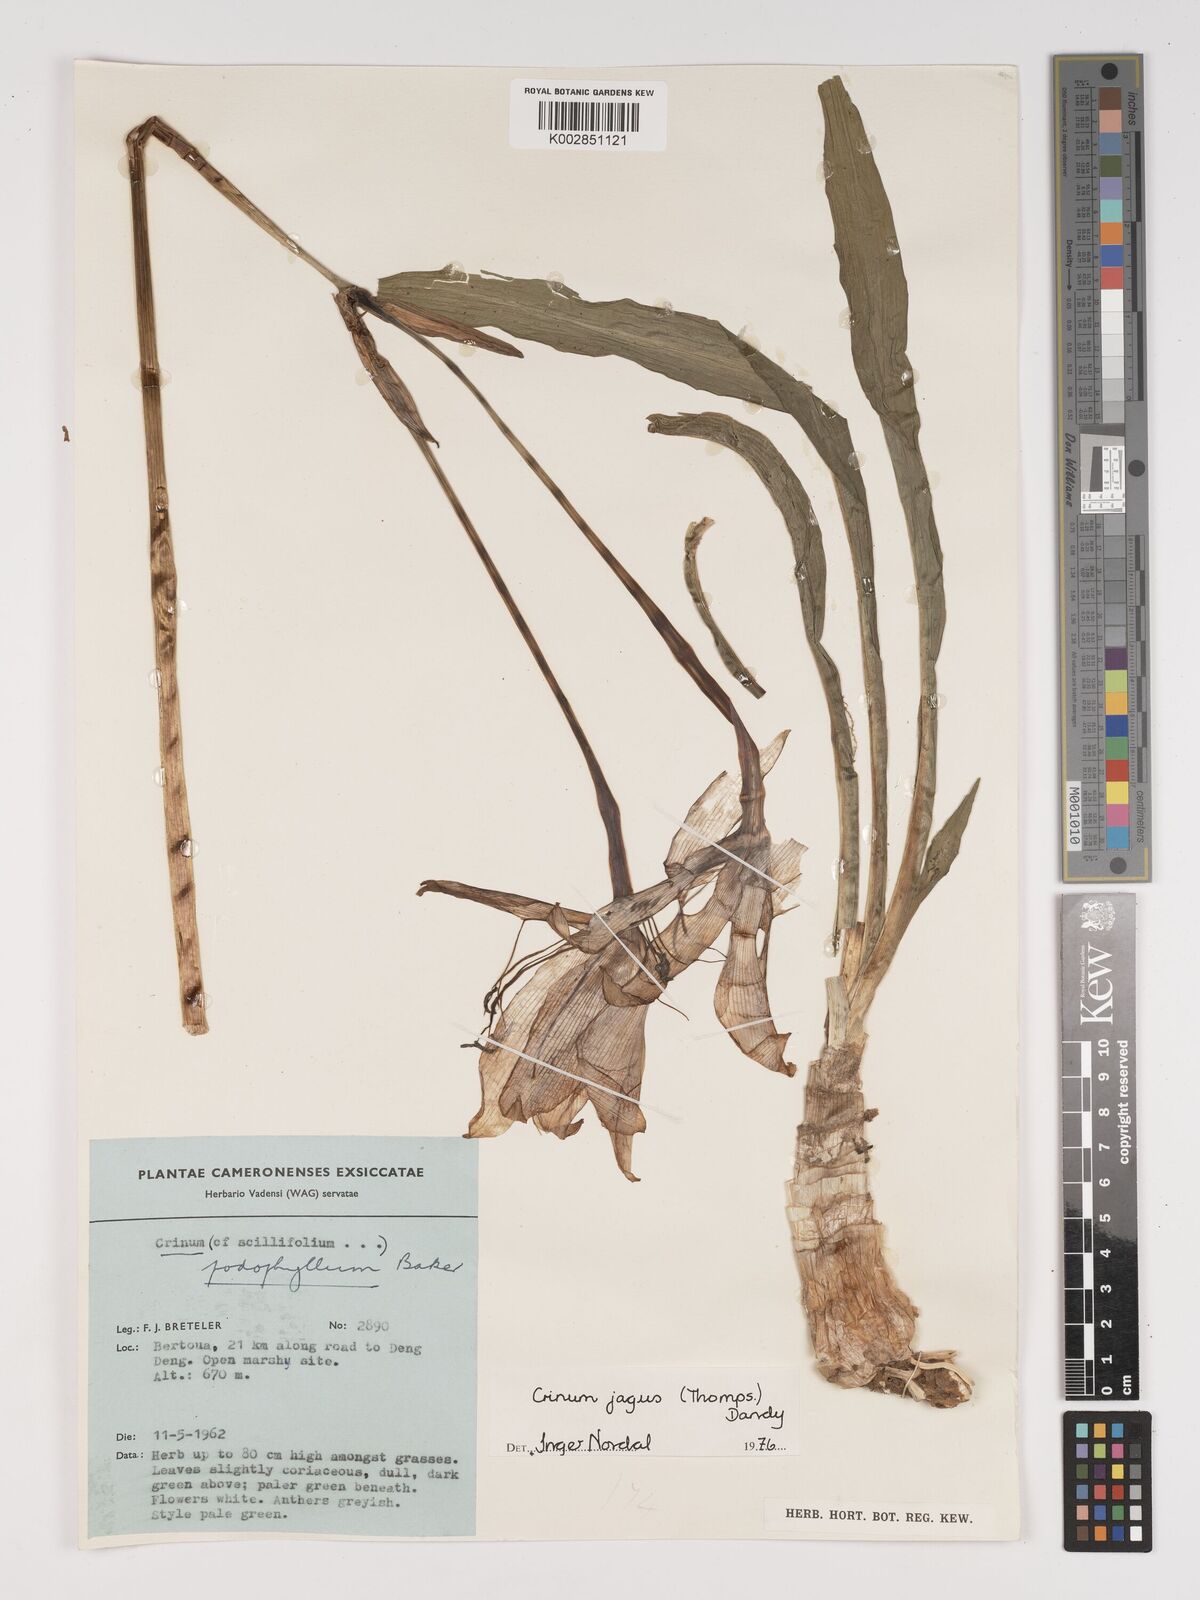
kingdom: Plantae
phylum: Tracheophyta
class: Liliopsida
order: Asparagales
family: Amaryllidaceae
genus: Crinum
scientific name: Crinum jagus
